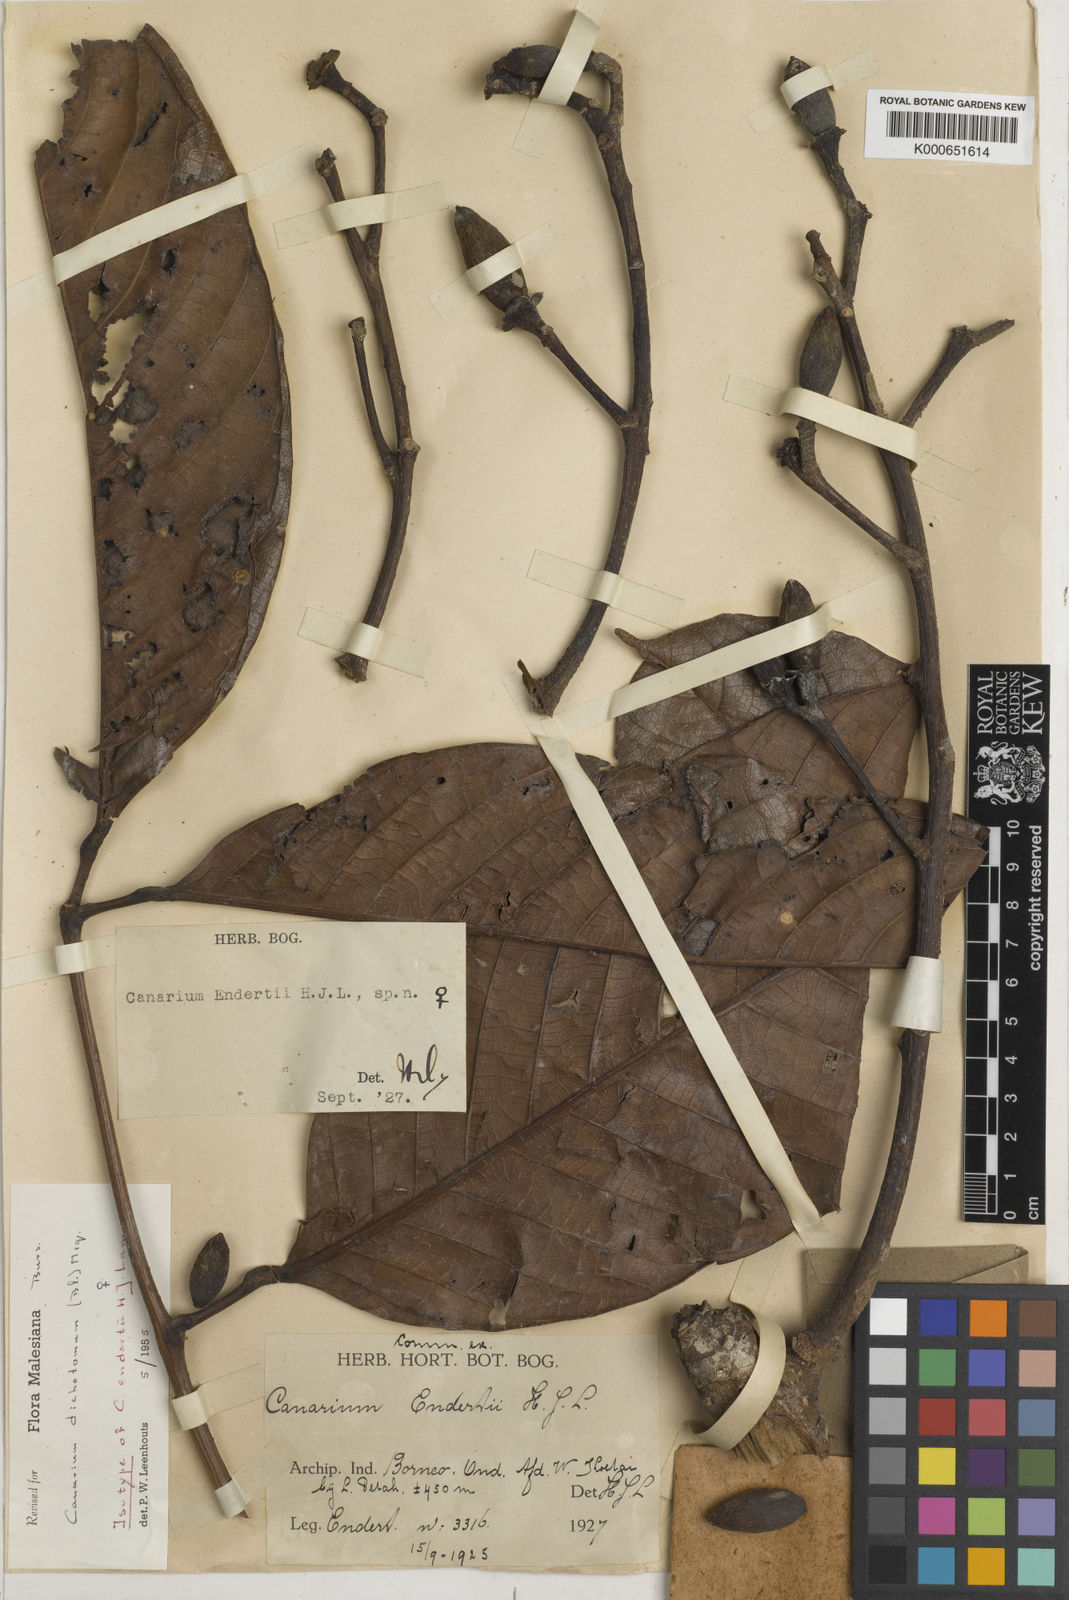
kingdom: Plantae
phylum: Tracheophyta
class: Magnoliopsida
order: Sapindales
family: Burseraceae
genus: Canarium
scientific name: Canarium dichotomum
